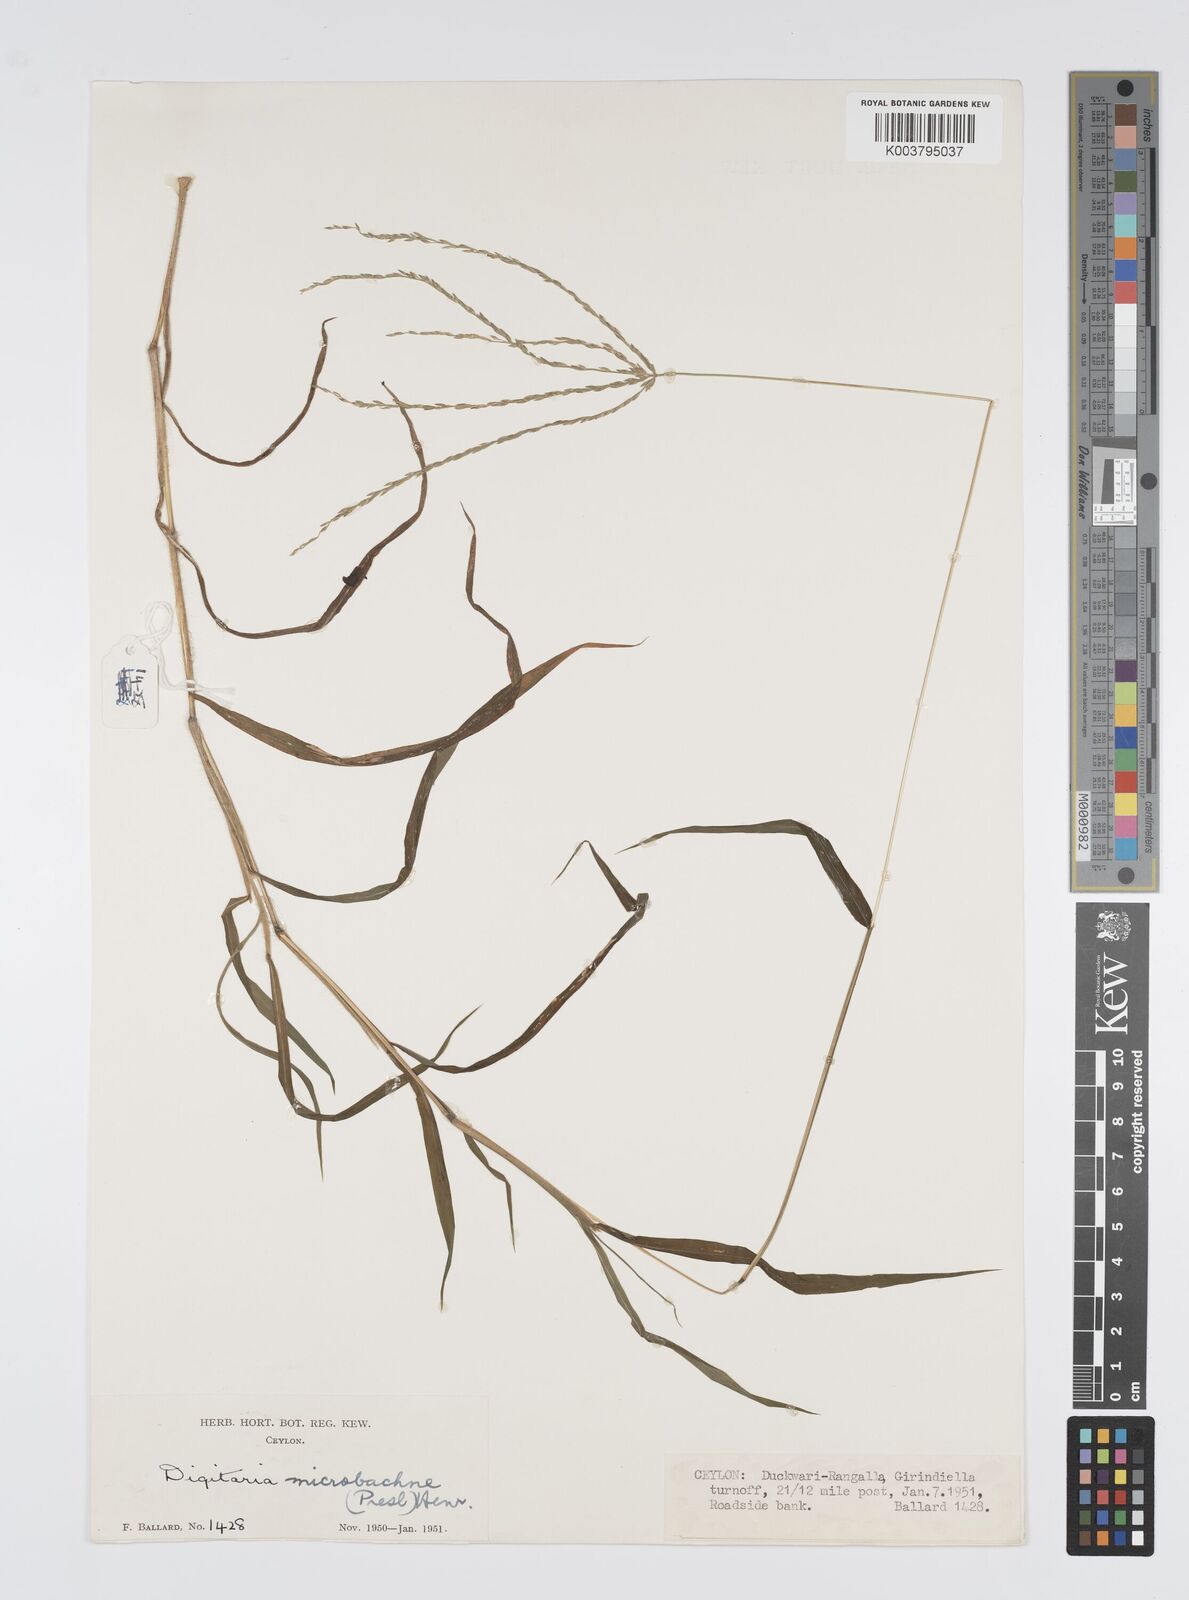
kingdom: Plantae
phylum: Tracheophyta
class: Liliopsida
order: Poales
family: Poaceae
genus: Digitaria
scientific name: Digitaria setigera
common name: East indian crabgrass
